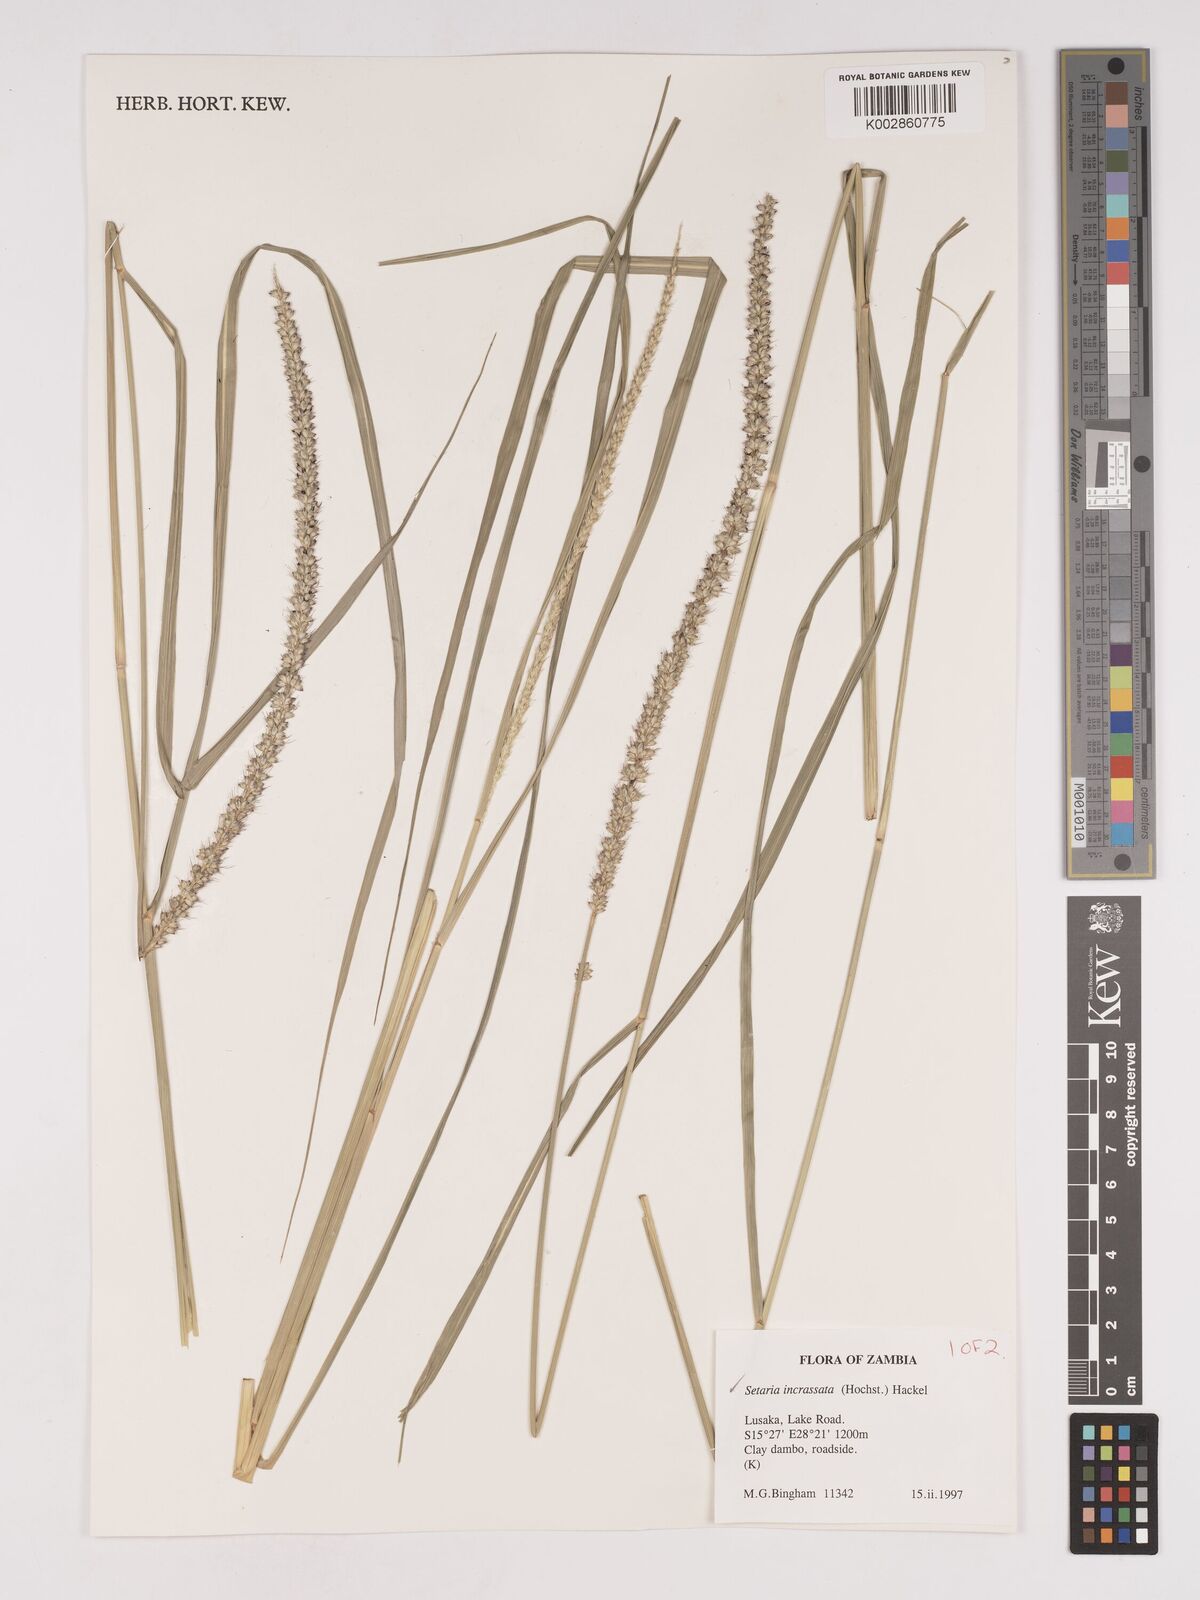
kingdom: Plantae
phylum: Tracheophyta
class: Liliopsida
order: Poales
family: Poaceae
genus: Setaria
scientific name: Setaria incrassata
